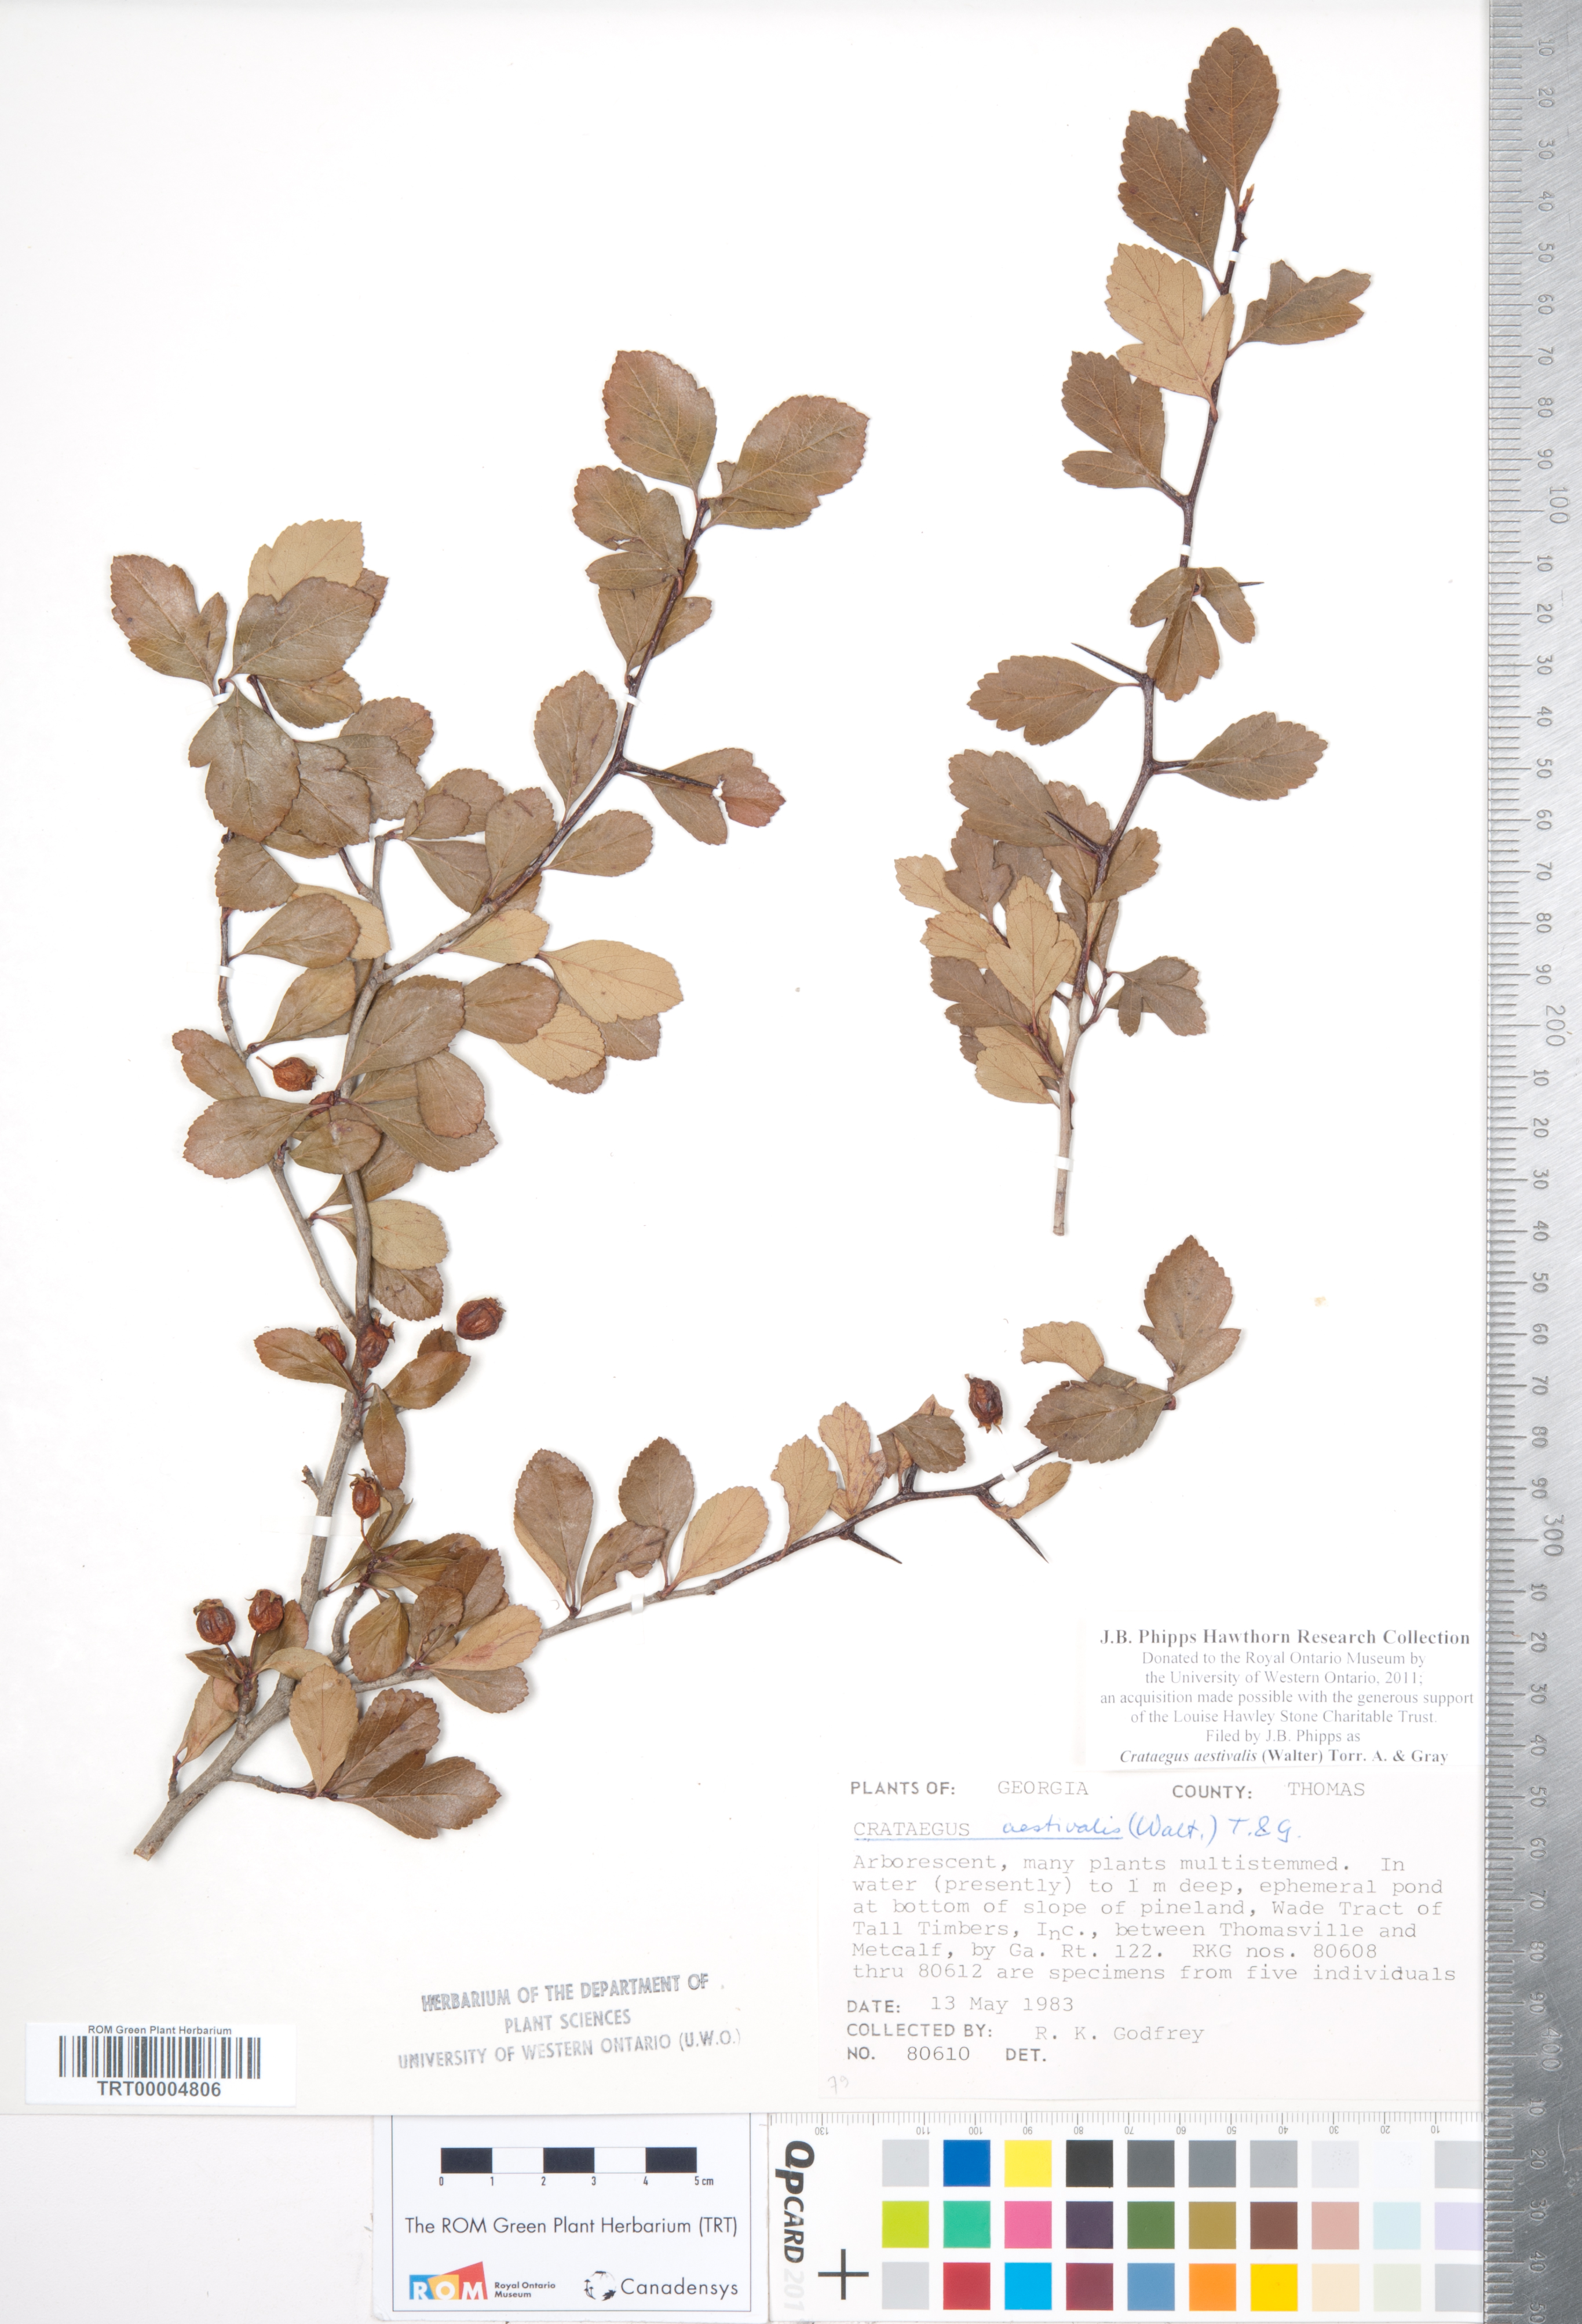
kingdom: Plantae
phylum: Tracheophyta
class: Magnoliopsida
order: Rosales
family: Rosaceae
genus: Crataegus
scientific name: Crataegus aestivalis
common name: Mayhaw
